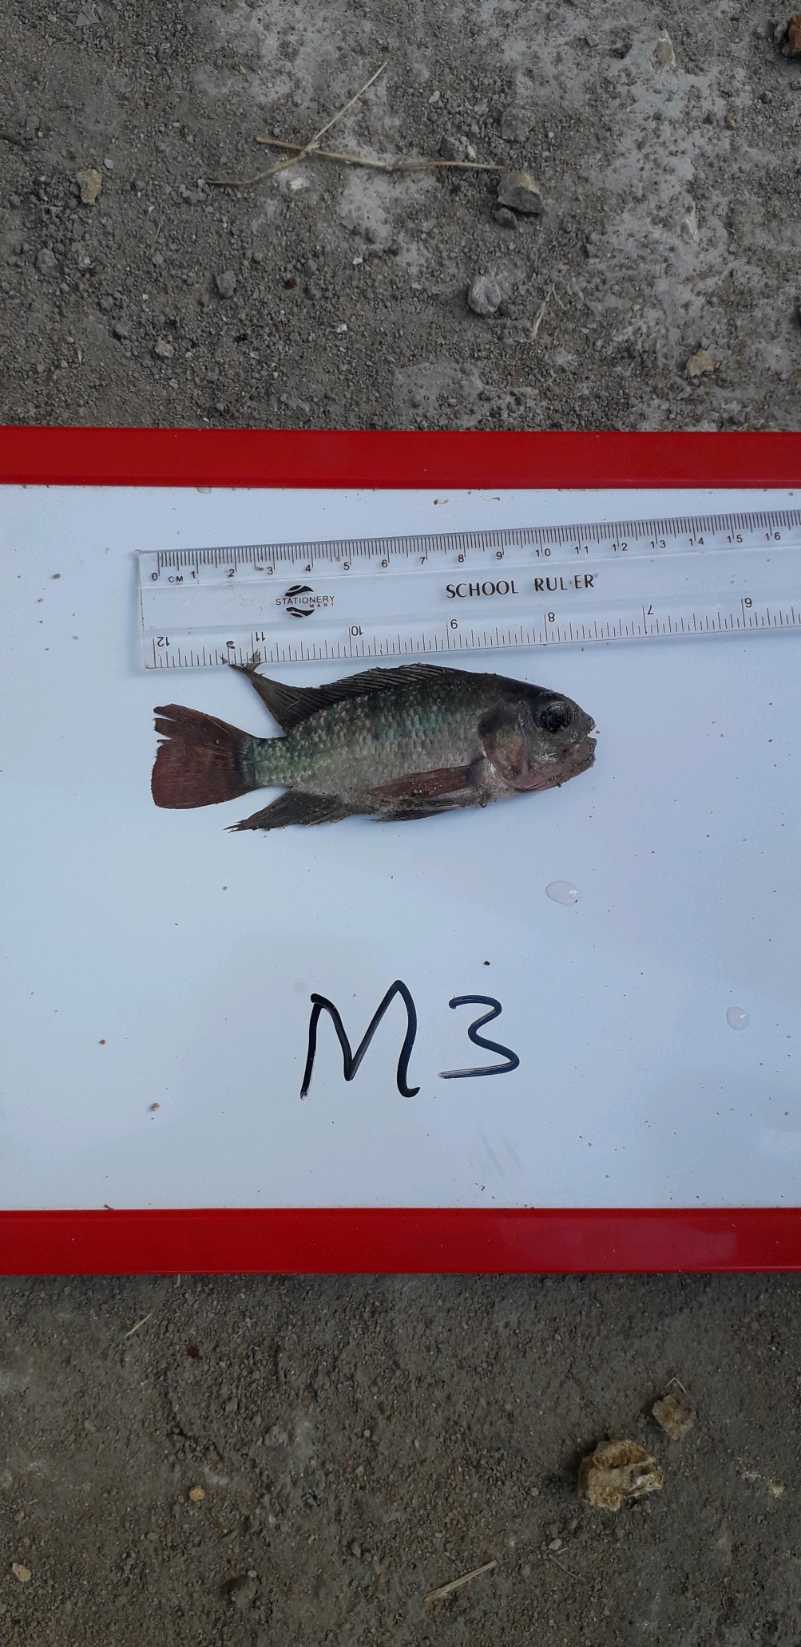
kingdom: Animalia
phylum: Chordata
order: Perciformes
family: Cichlidae
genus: Oreochromis
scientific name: Oreochromis niloticus
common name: Nile tilapia
